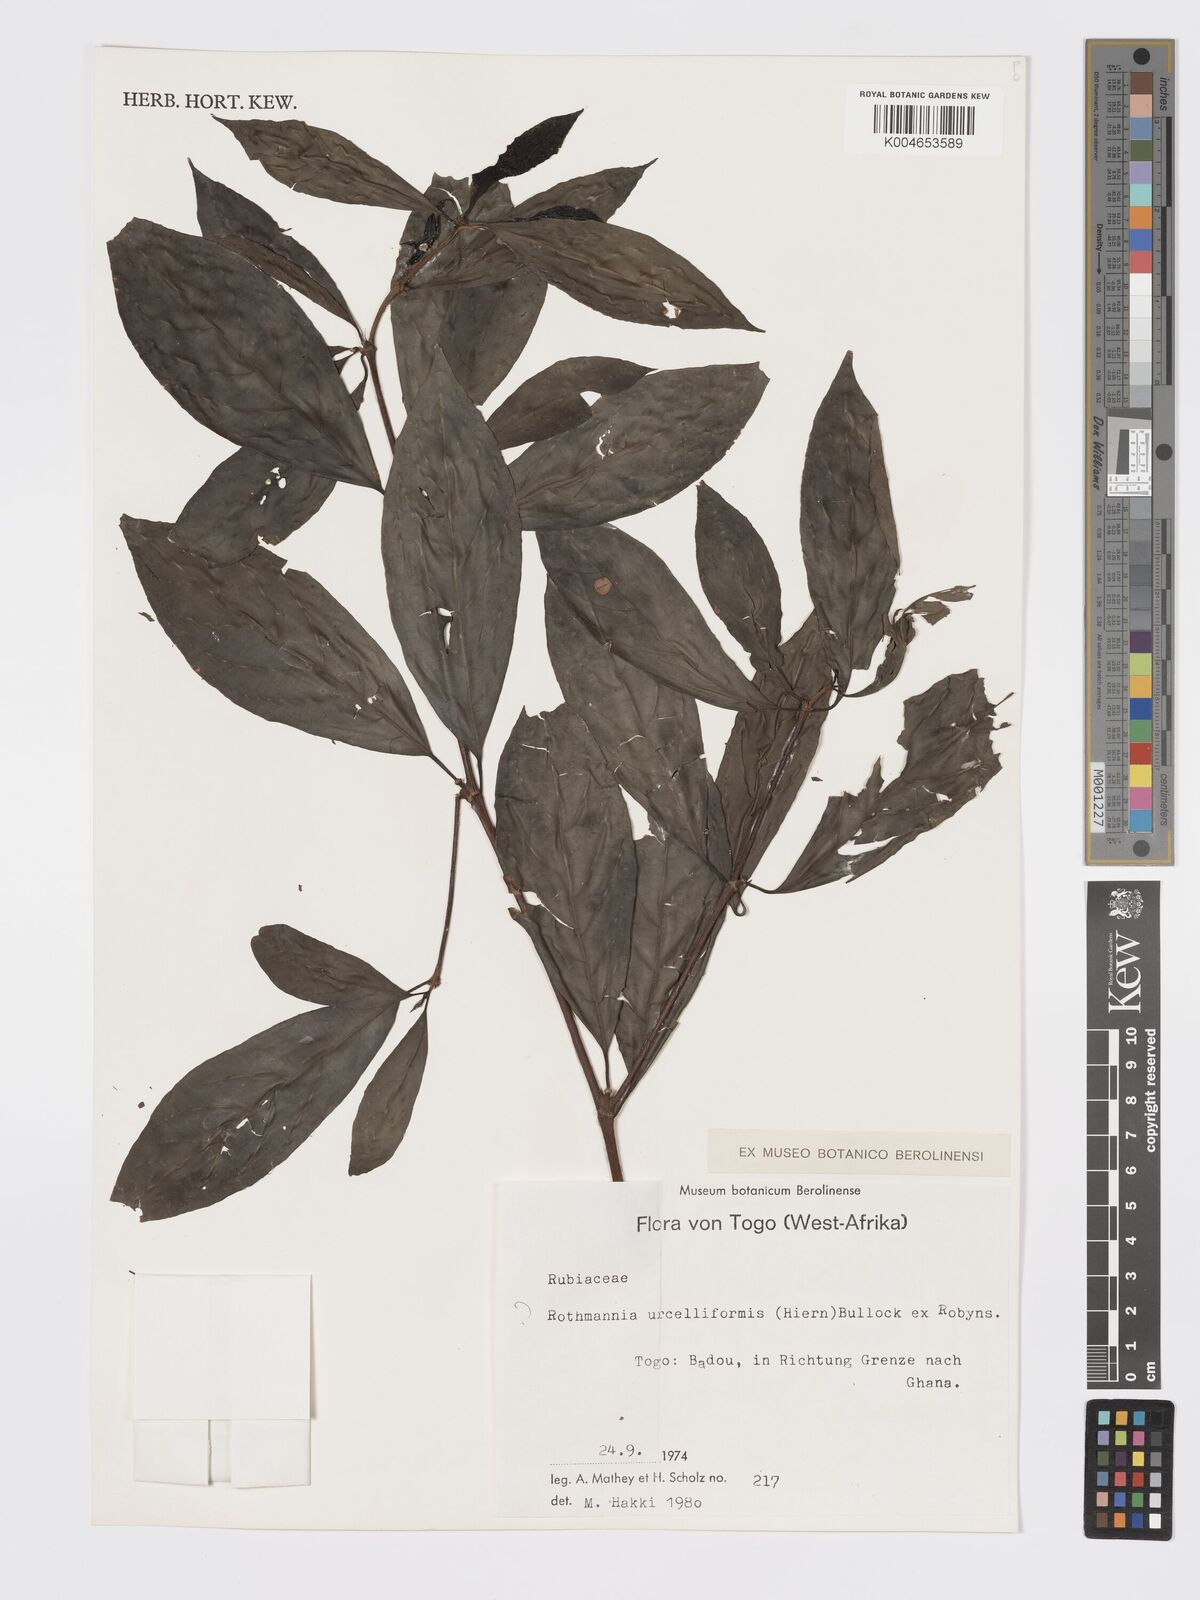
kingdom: Plantae
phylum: Tracheophyta
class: Magnoliopsida
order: Gentianales
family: Rubiaceae
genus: Rothmannia
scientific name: Rothmannia urcelliformis
